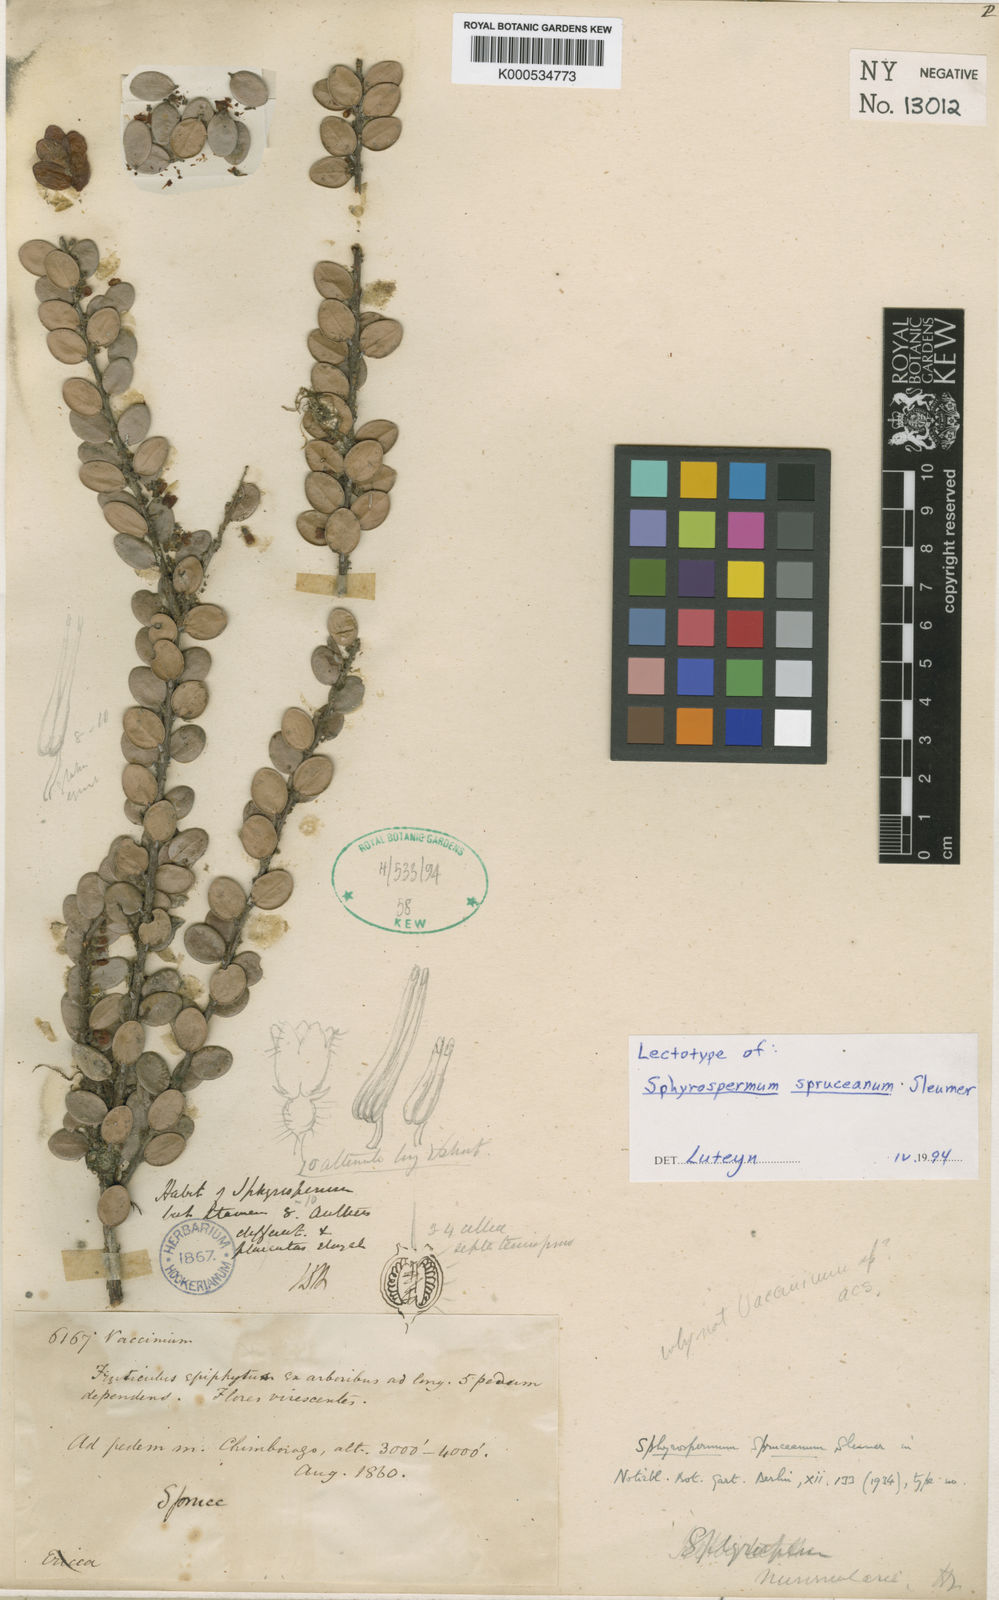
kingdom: Plantae
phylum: Tracheophyta
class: Magnoliopsida
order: Ericales
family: Ericaceae
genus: Sphyrospermum
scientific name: Sphyrospermum spruceanum
